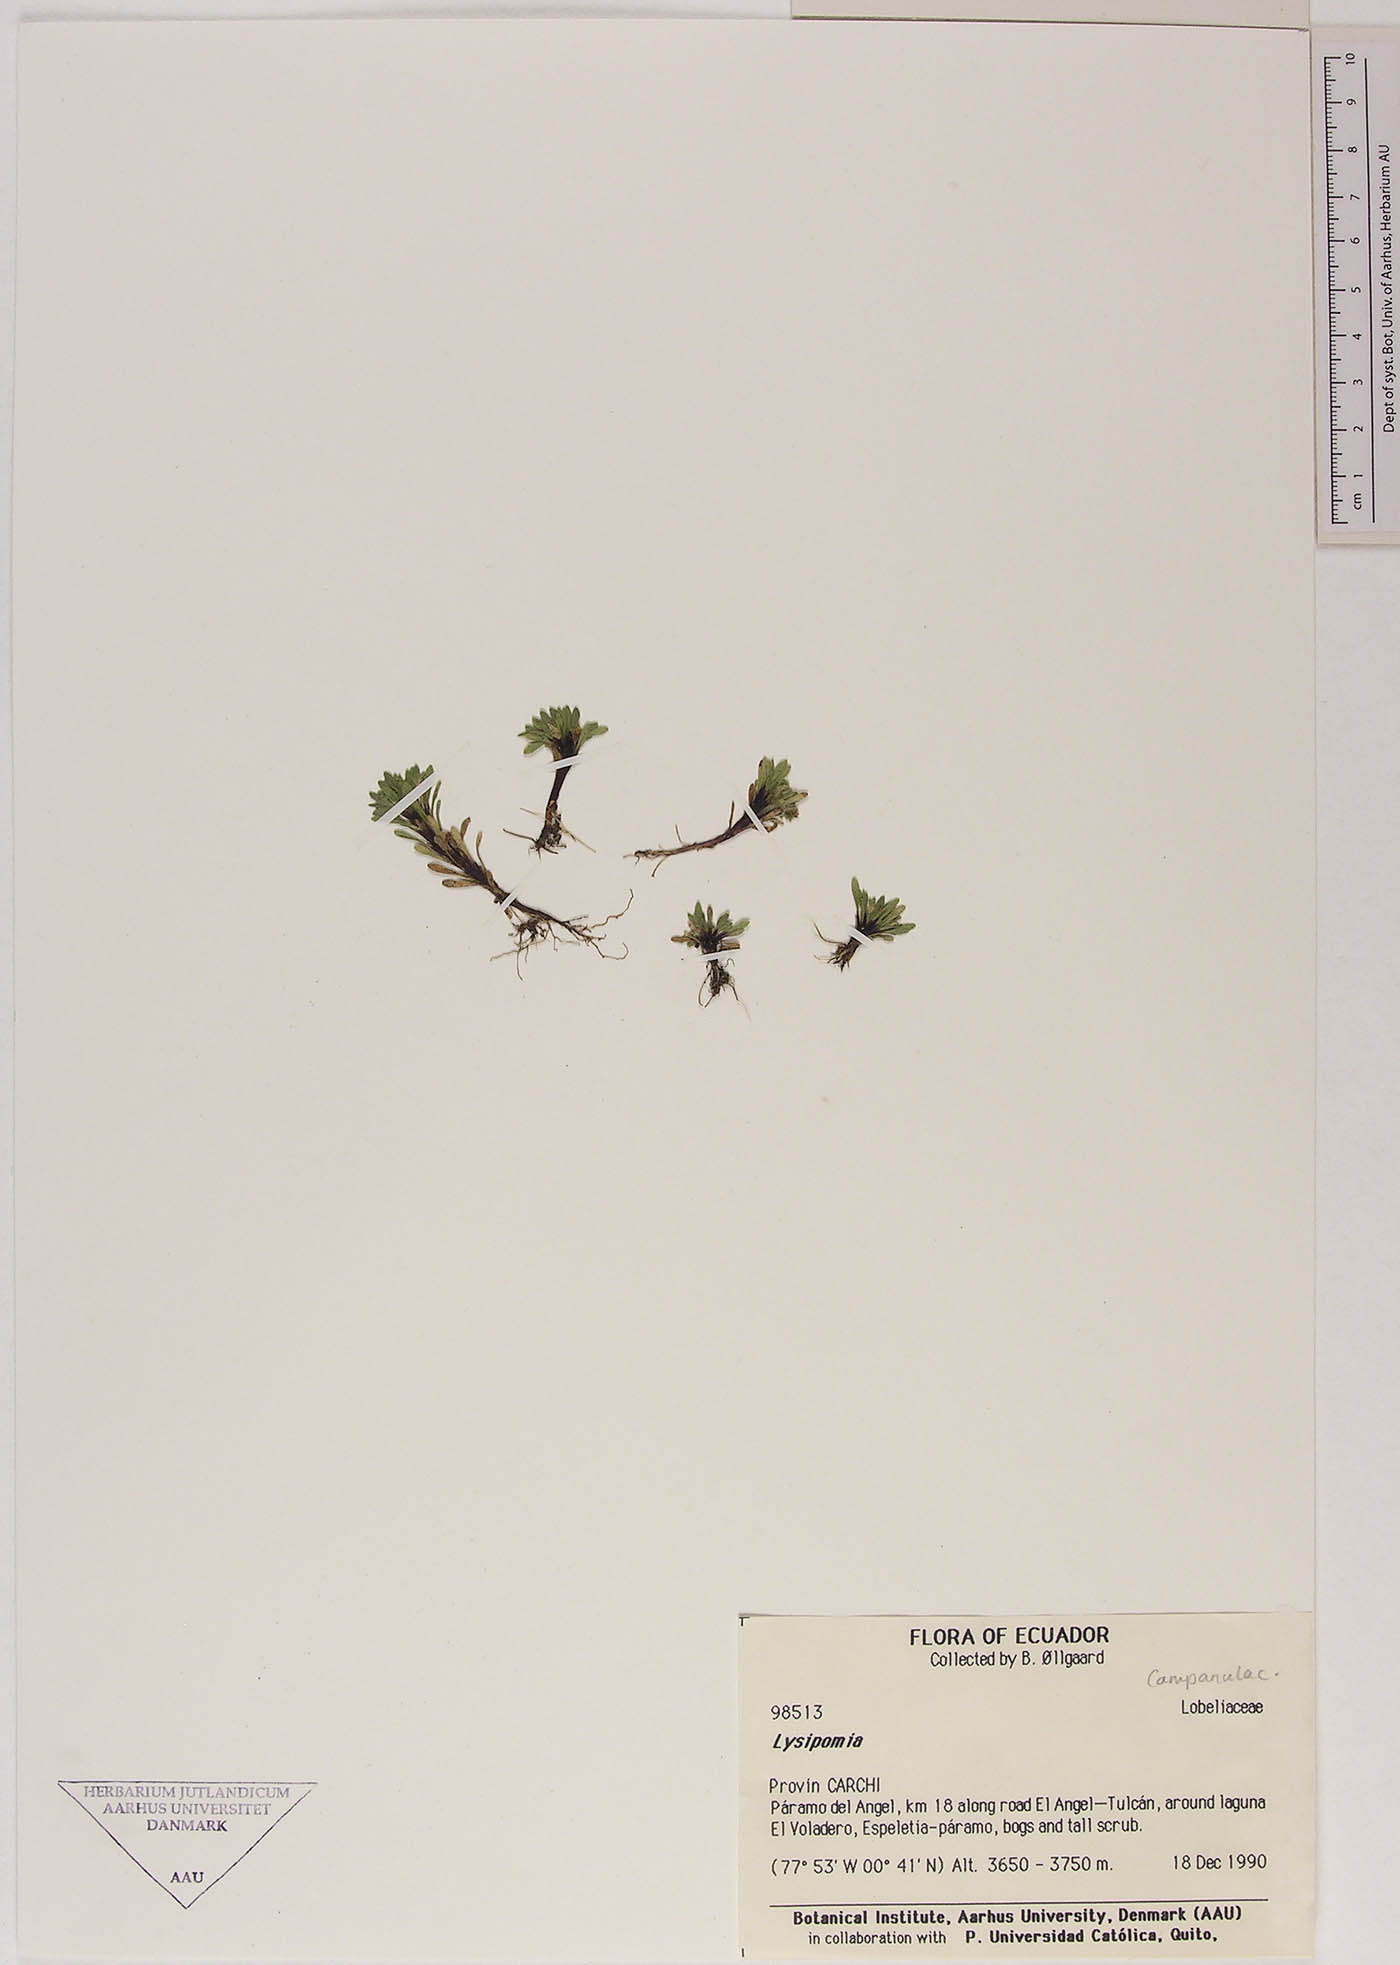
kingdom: Plantae
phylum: Tracheophyta
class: Magnoliopsida
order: Asterales
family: Campanulaceae
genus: Lysipomia
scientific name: Lysipomia
